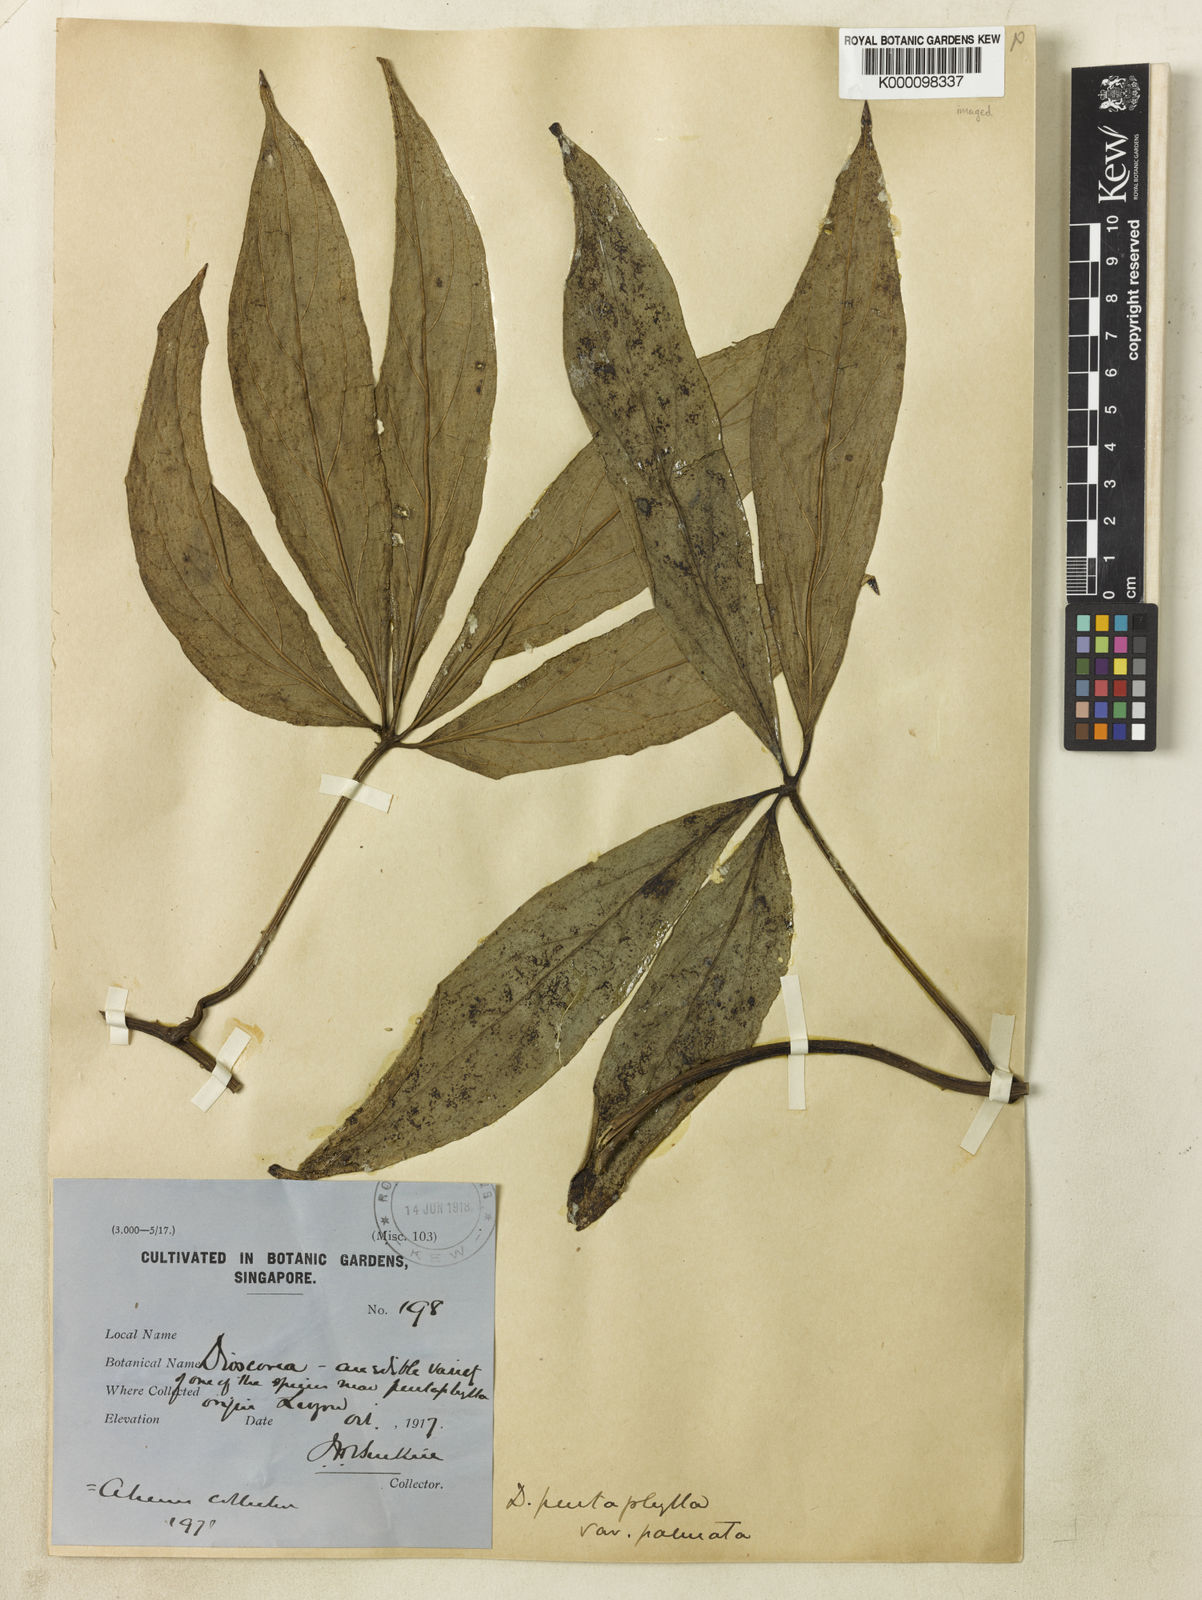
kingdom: Plantae
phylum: Tracheophyta
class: Liliopsida
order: Dioscoreales
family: Dioscoreaceae
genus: Dioscorea
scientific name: Dioscorea pentaphylla
